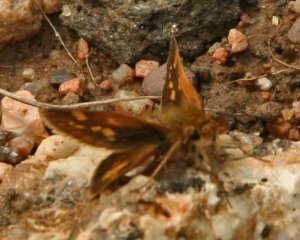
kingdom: Animalia
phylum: Arthropoda
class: Insecta
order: Lepidoptera
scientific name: Lepidoptera
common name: Butterflies
